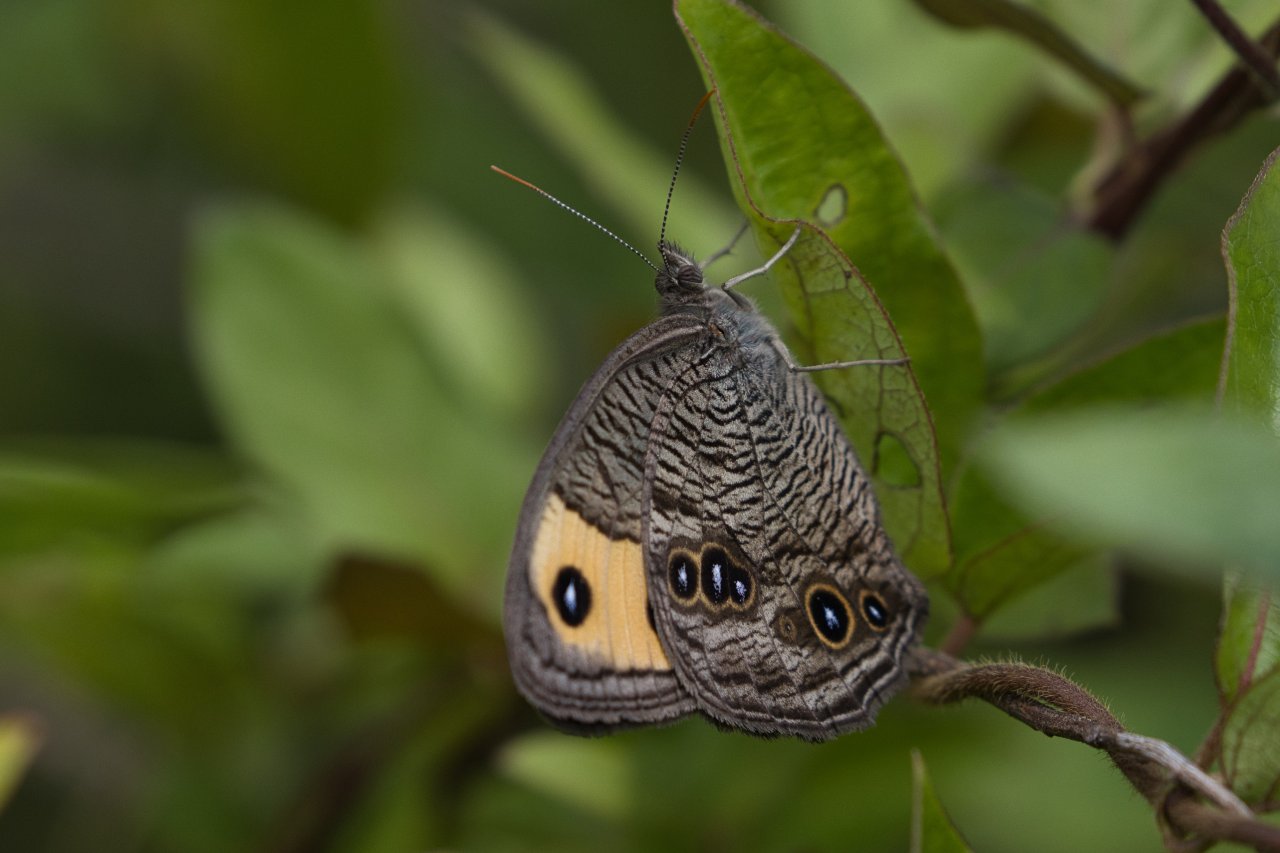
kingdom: Animalia
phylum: Arthropoda
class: Insecta
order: Lepidoptera
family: Nymphalidae
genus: Cercyonis
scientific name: Cercyonis pegala
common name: Common Wood-Nymph
